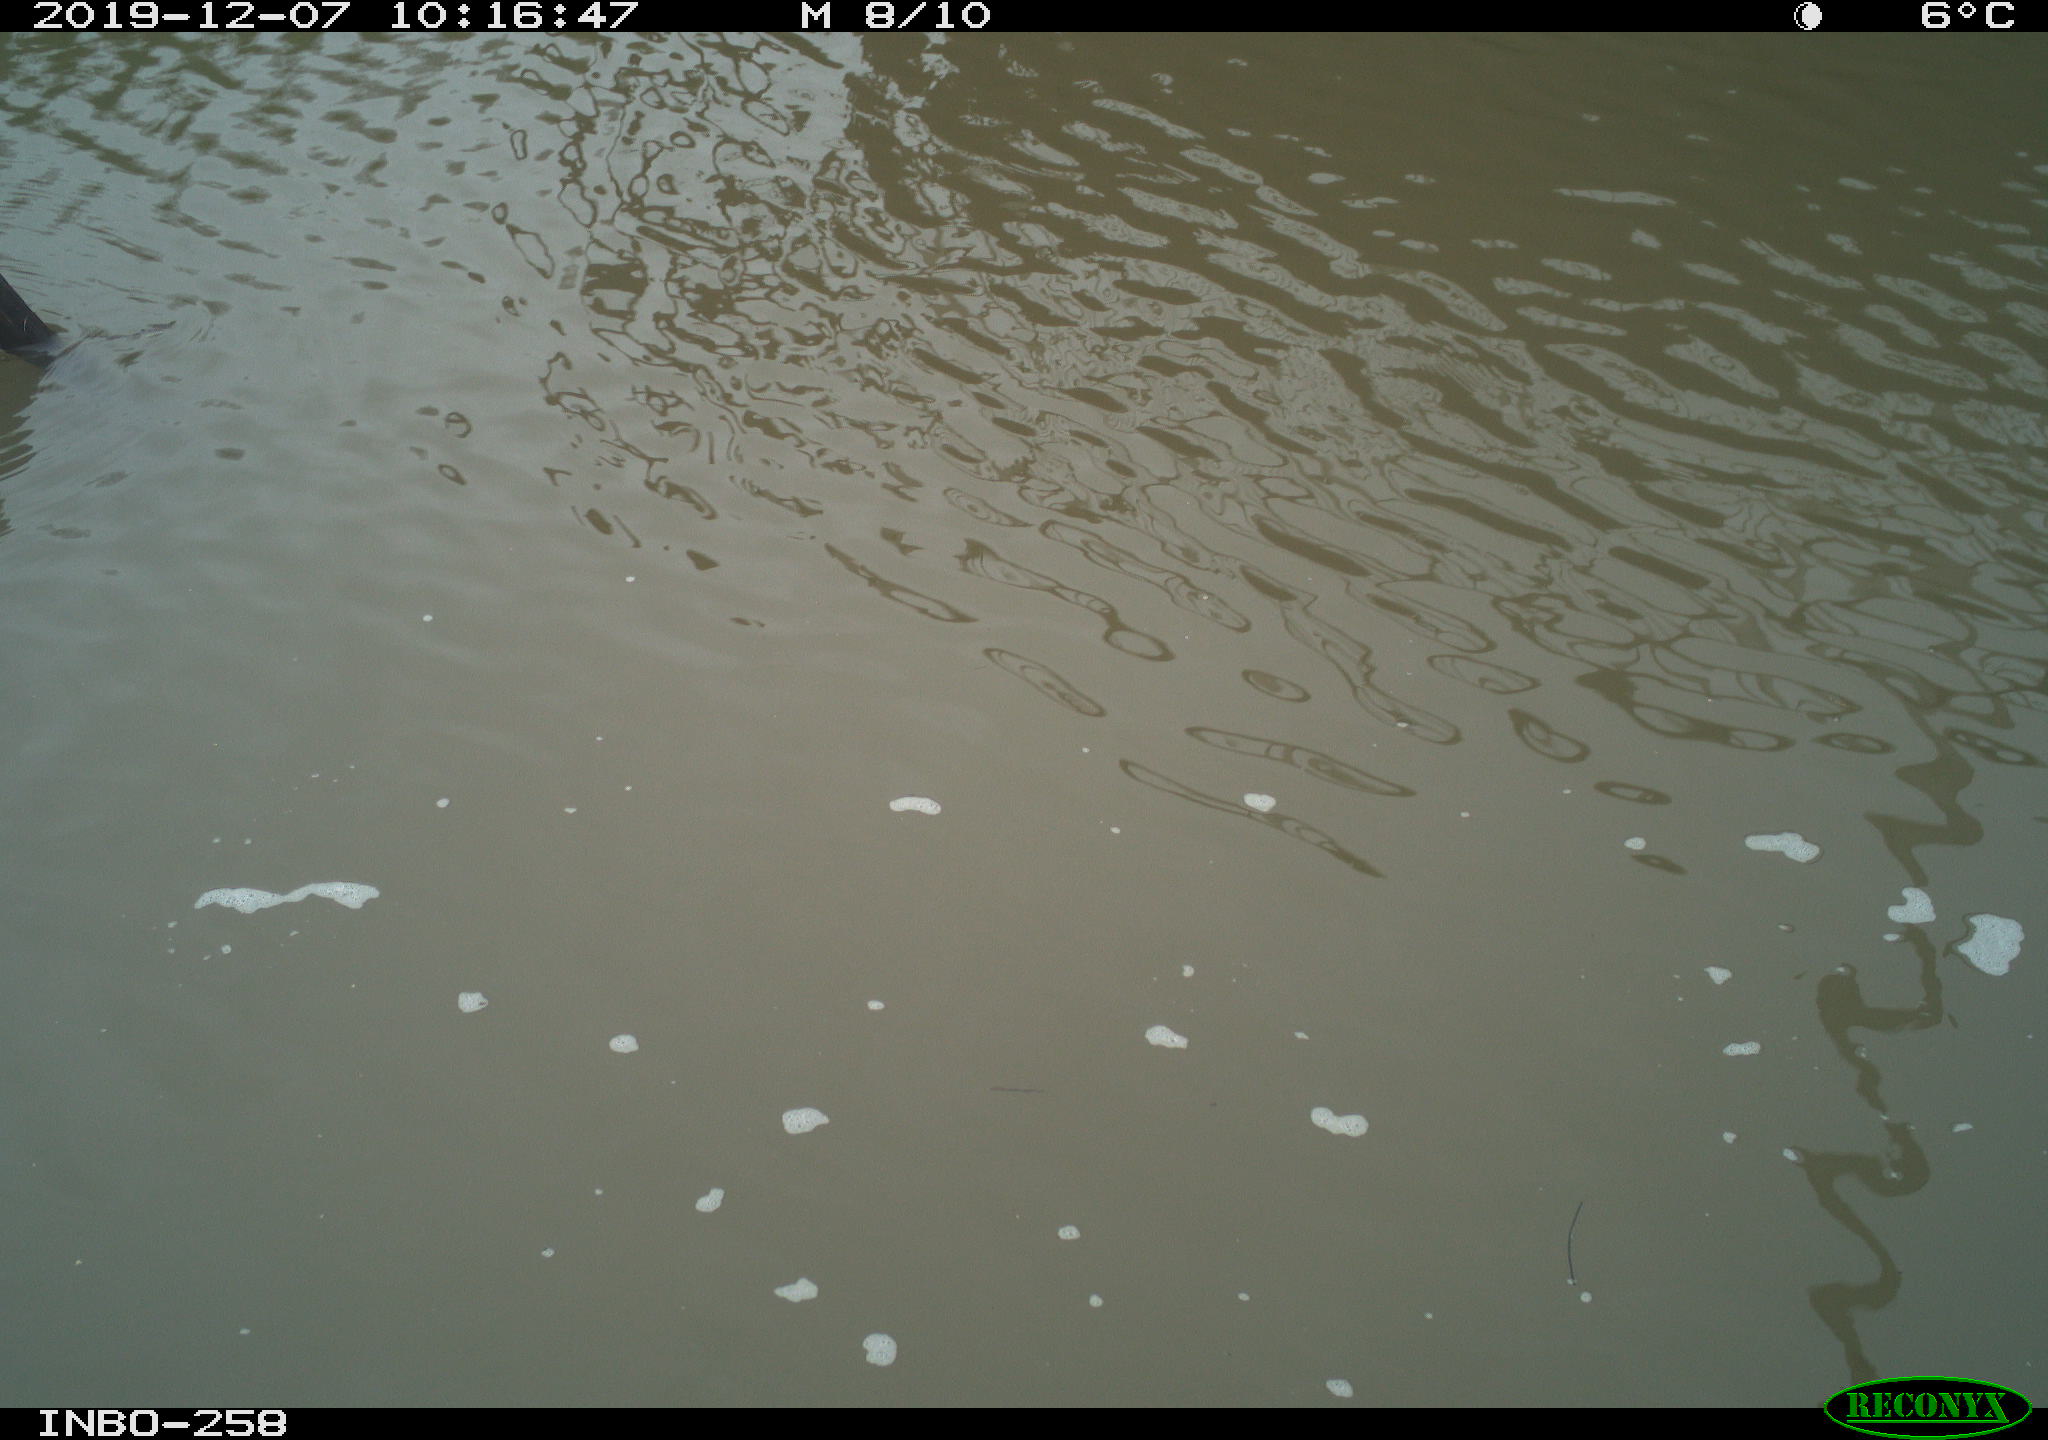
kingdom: Animalia
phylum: Chordata
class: Aves
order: Gruiformes
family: Rallidae
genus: Gallinula
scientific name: Gallinula chloropus
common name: Common moorhen
